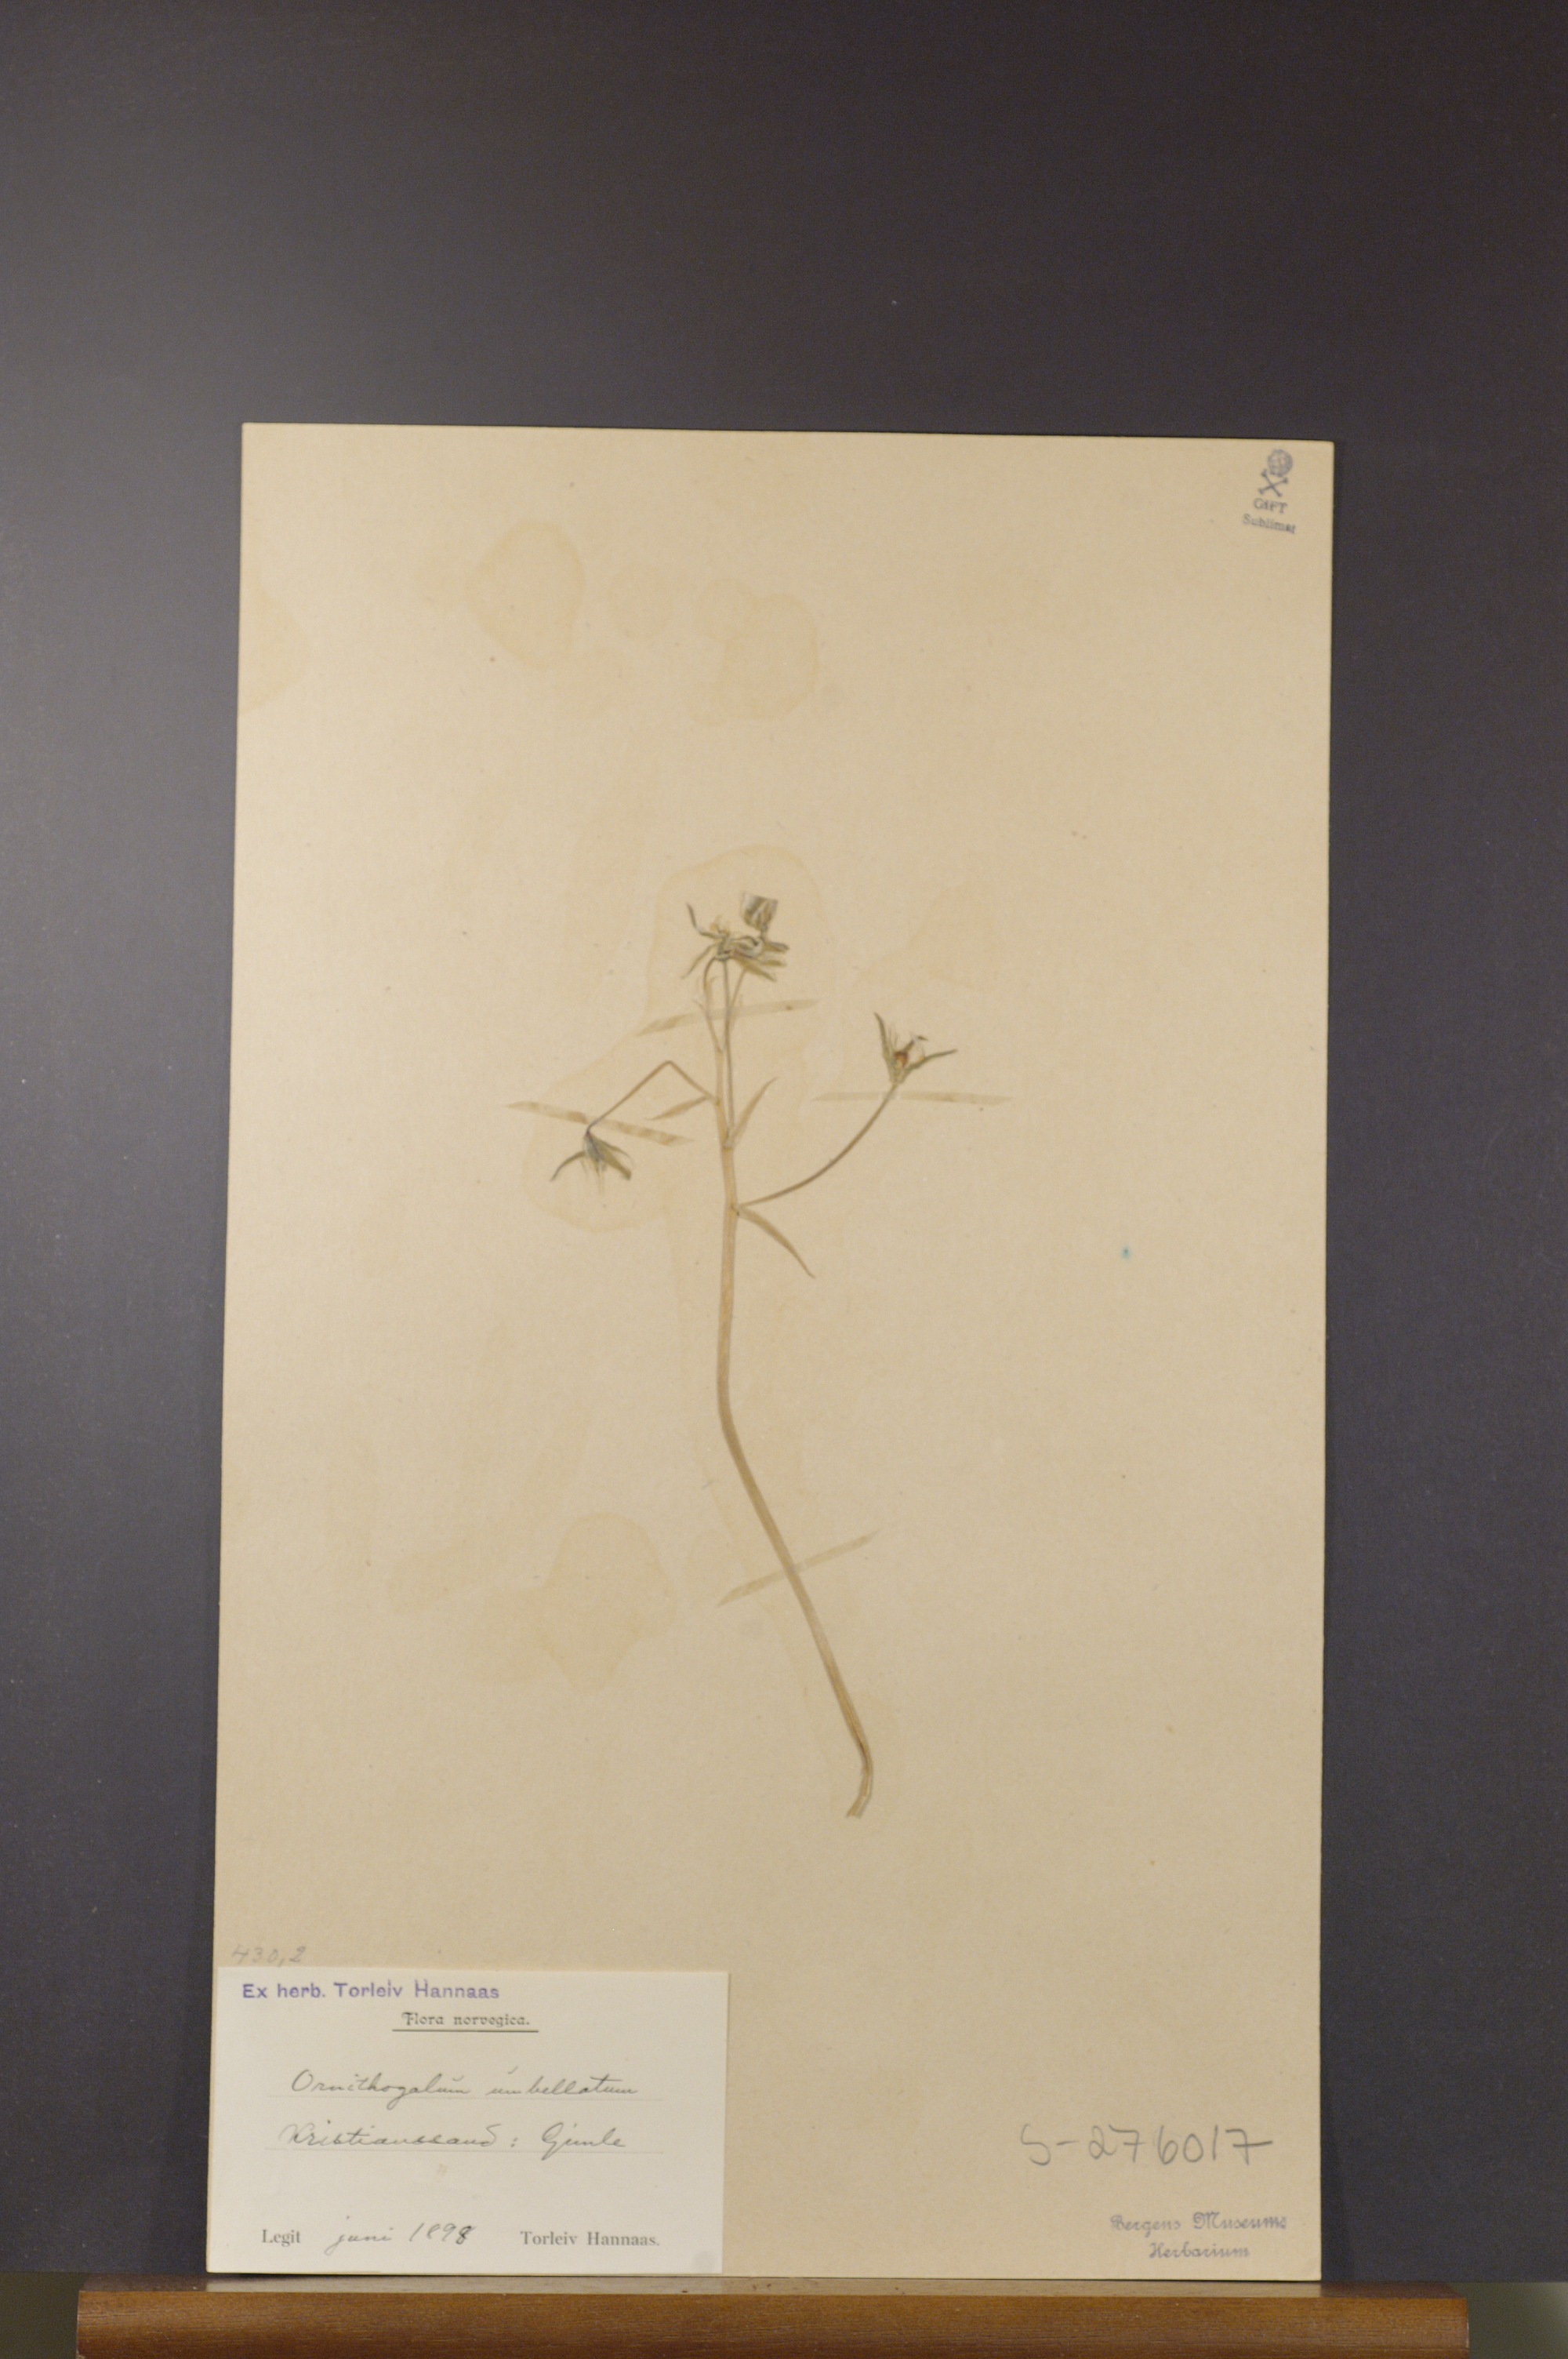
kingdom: Plantae
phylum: Tracheophyta
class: Liliopsida
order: Asparagales
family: Asparagaceae
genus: Ornithogalum
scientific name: Ornithogalum umbellatum
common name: Garden star-of-bethlehem
